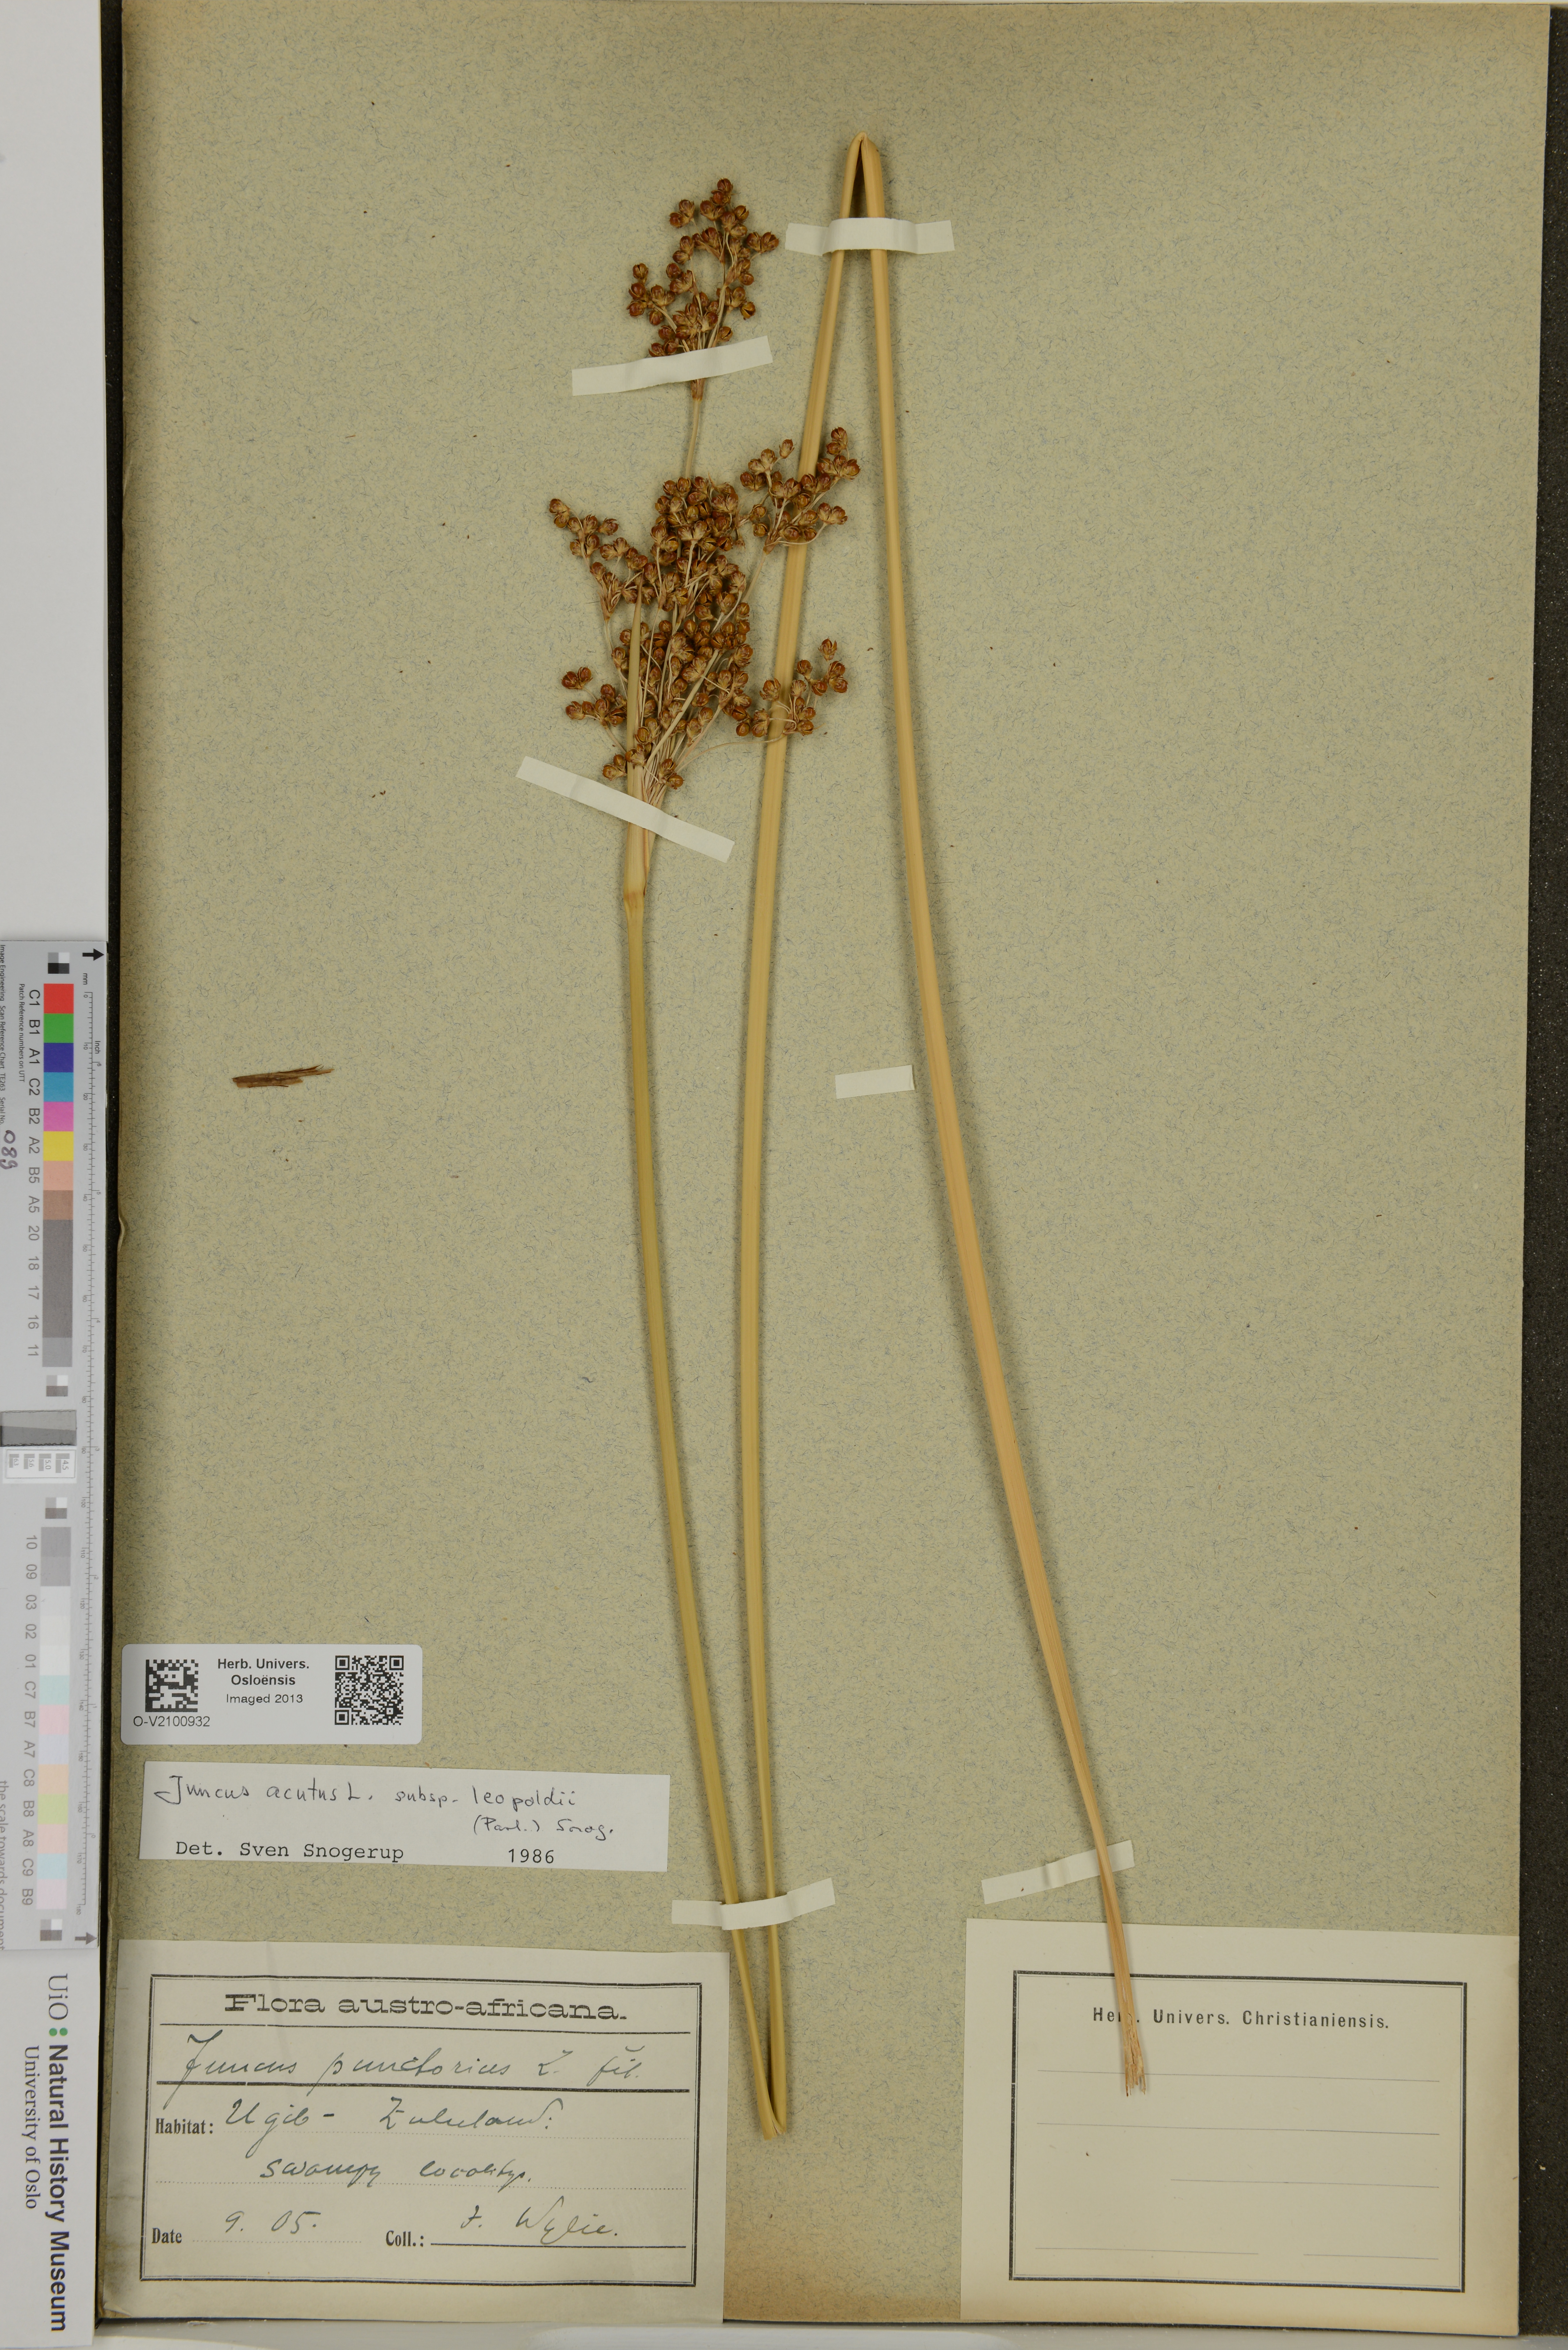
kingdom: Plantae
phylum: Tracheophyta
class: Liliopsida
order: Poales
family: Juncaceae
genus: Juncus
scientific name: Juncus acutus
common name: Sharp rush
